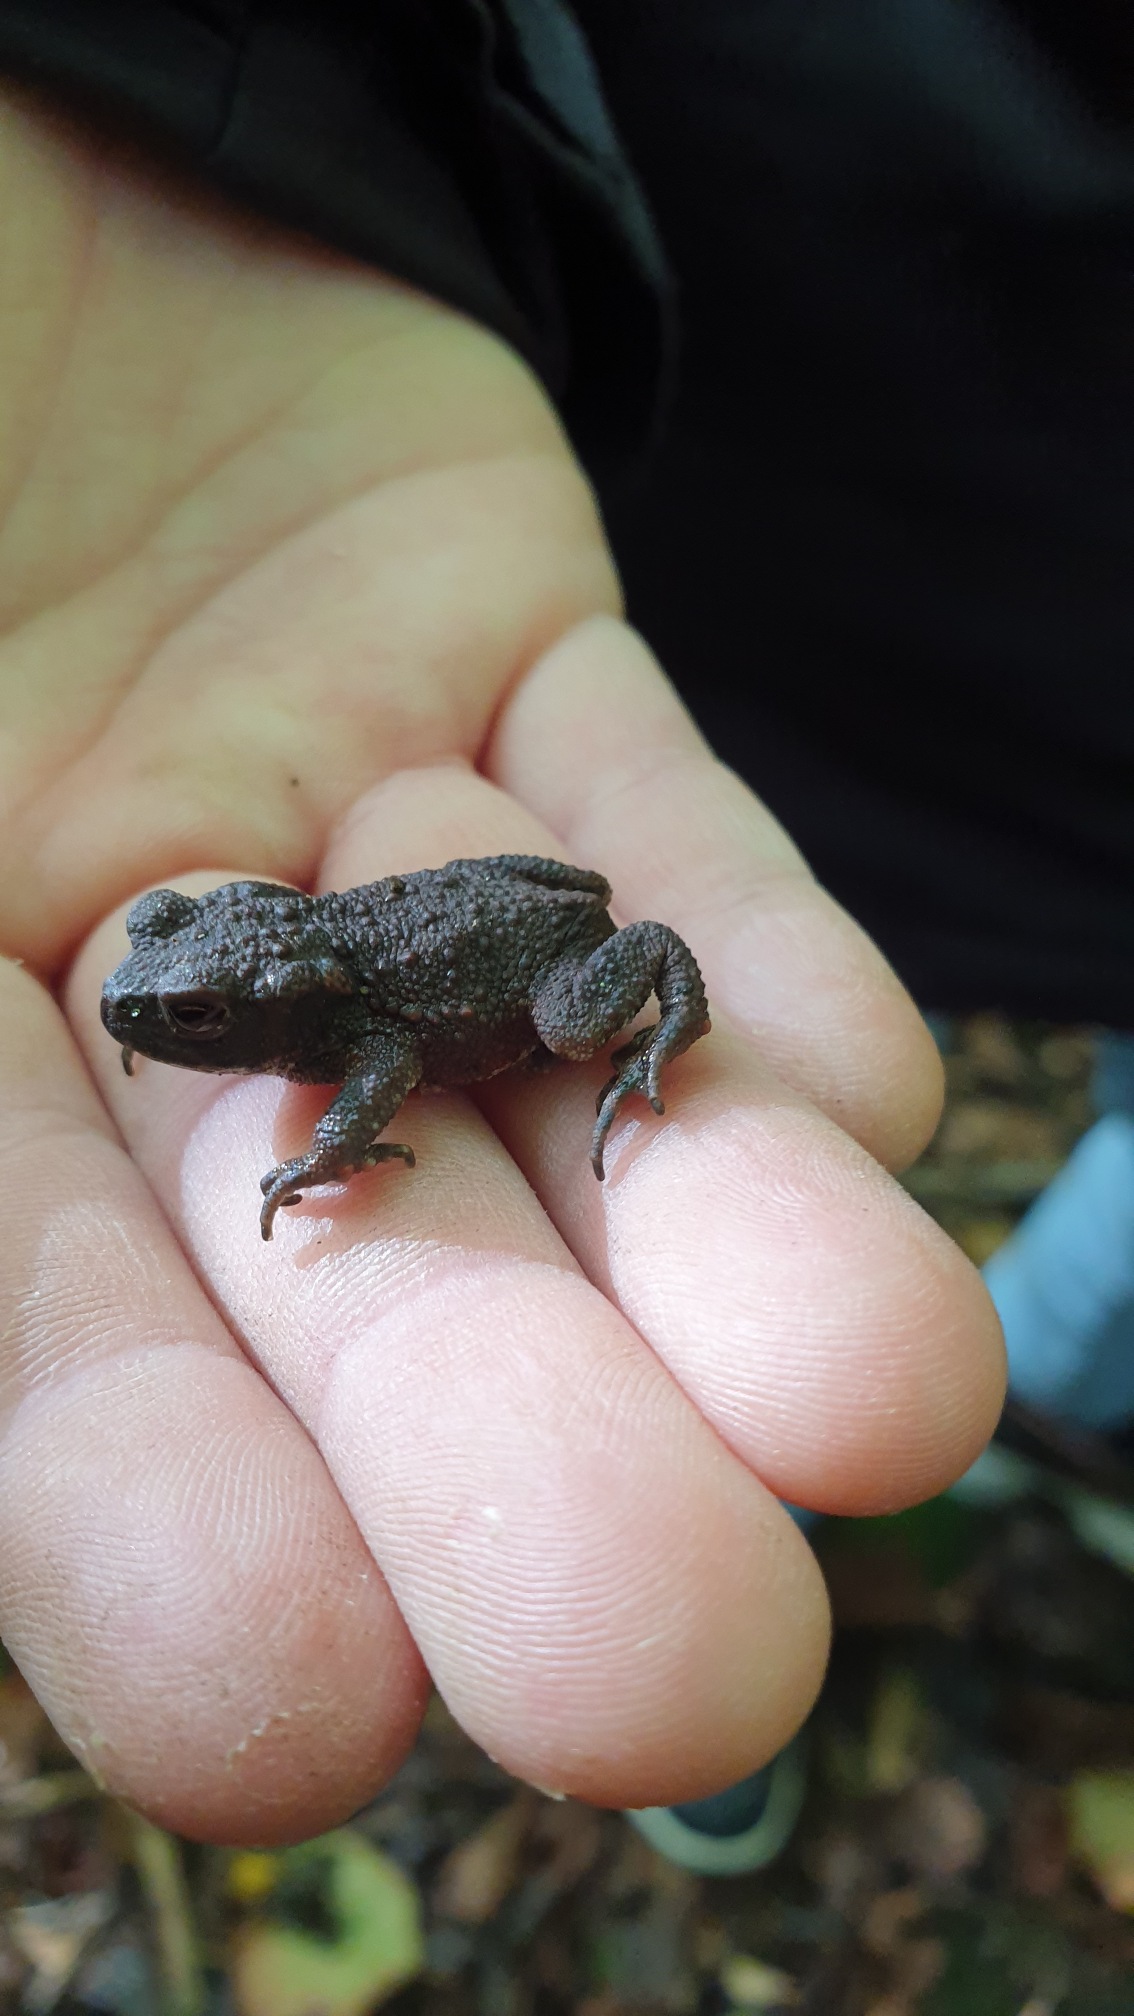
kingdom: Animalia
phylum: Chordata
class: Amphibia
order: Anura
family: Bufonidae
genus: Bufo
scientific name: Bufo bufo
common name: Skrubtudse
